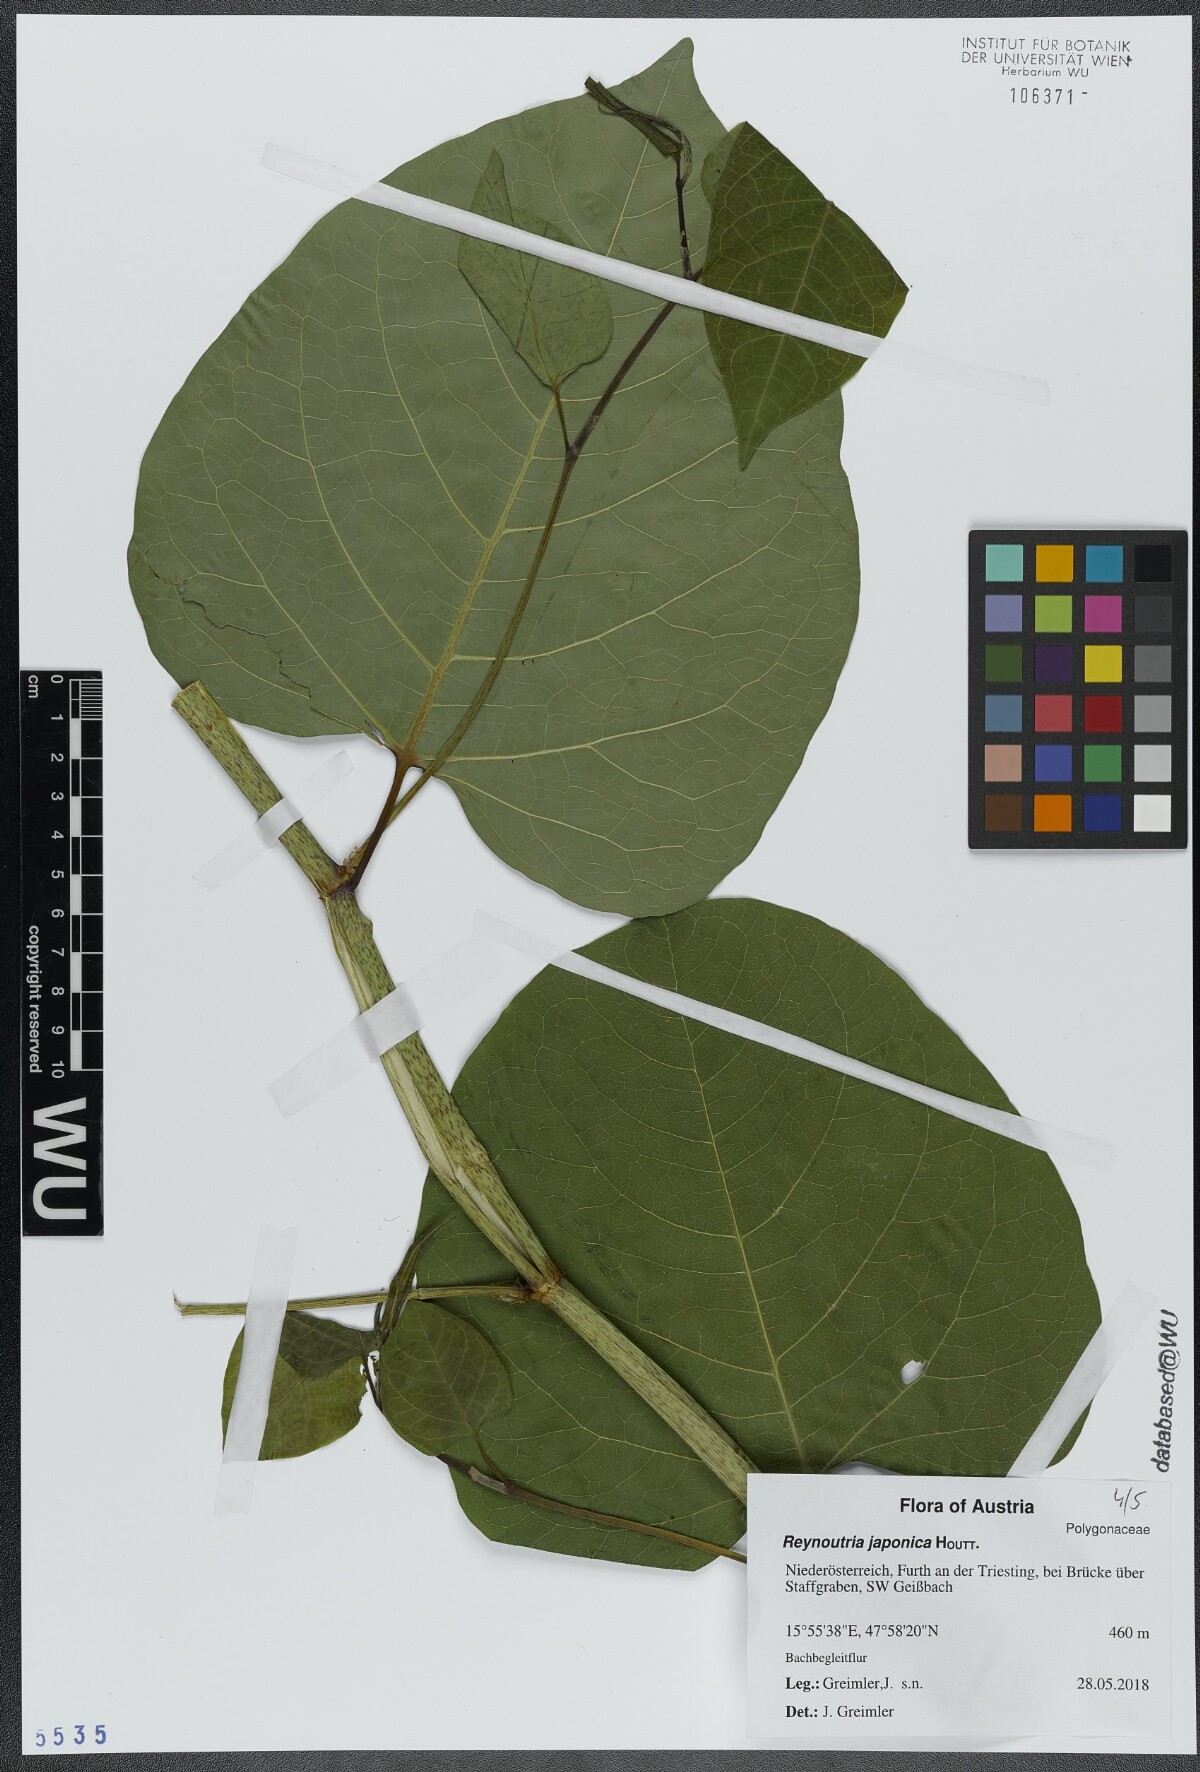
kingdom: Plantae
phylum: Tracheophyta
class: Magnoliopsida
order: Caryophyllales
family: Polygonaceae
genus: Reynoutria
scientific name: Reynoutria bohemica
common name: Bohemian knotweed
